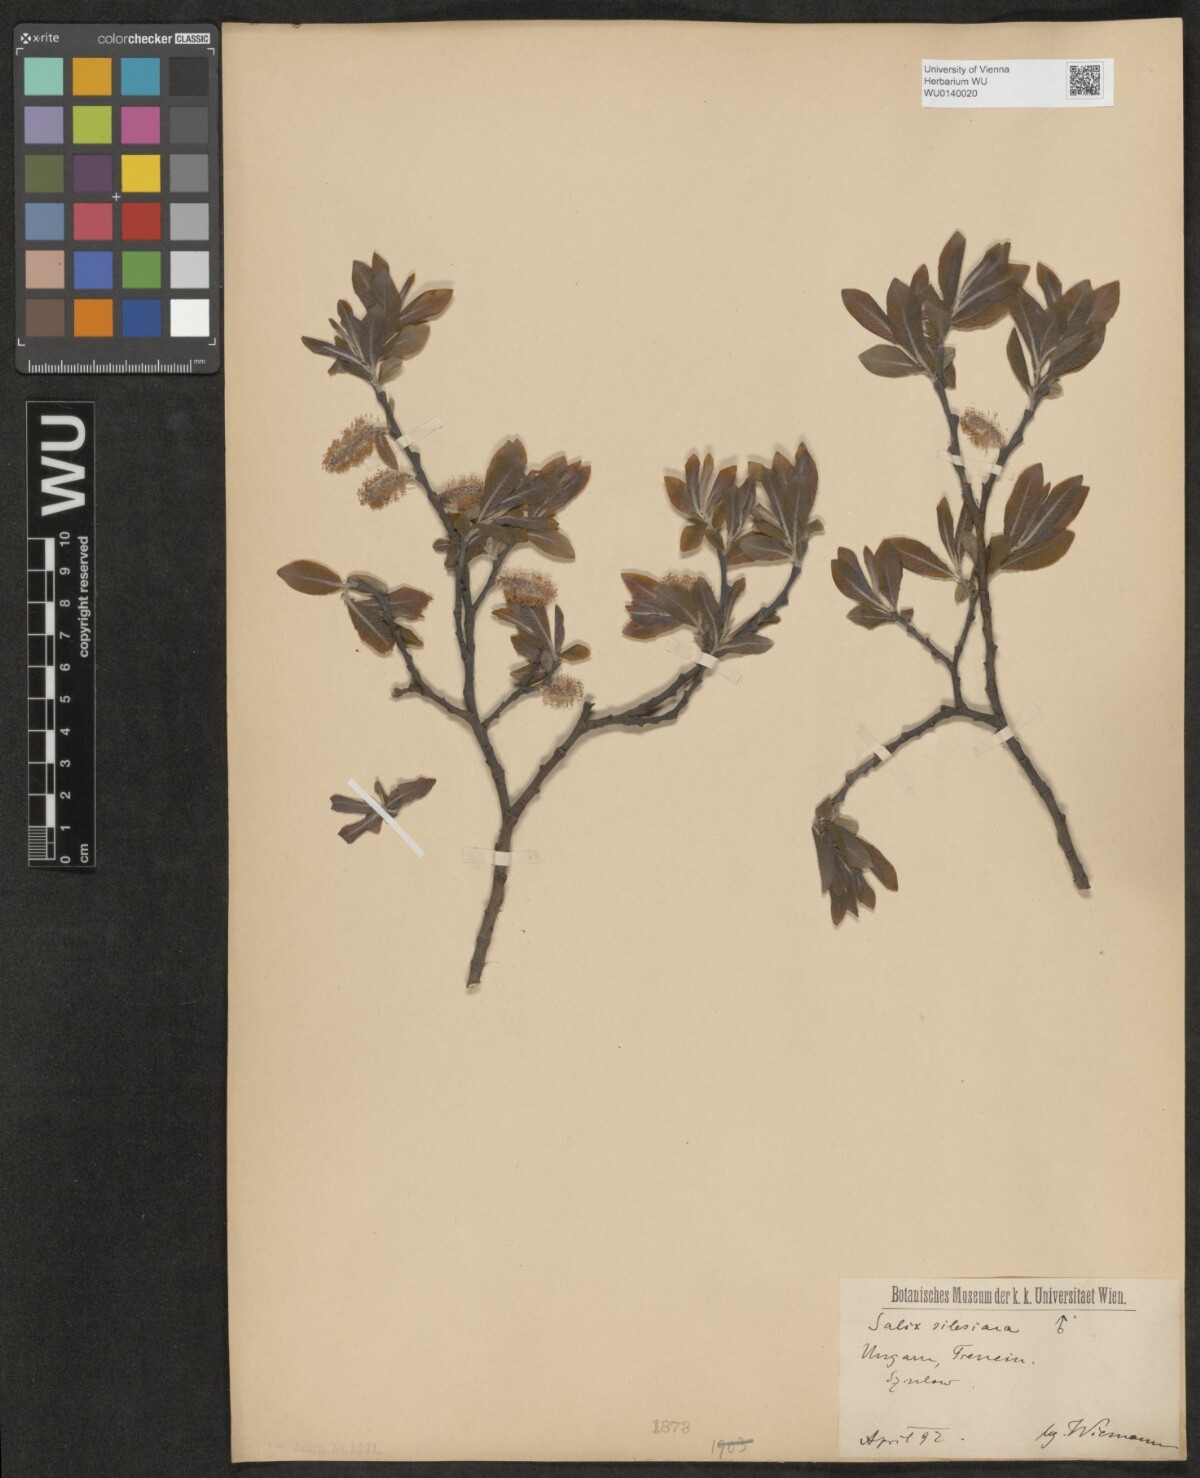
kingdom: Plantae
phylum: Tracheophyta
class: Magnoliopsida
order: Malpighiales
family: Salicaceae
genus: Salix
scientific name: Salix silesiaca
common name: Silesian willow
